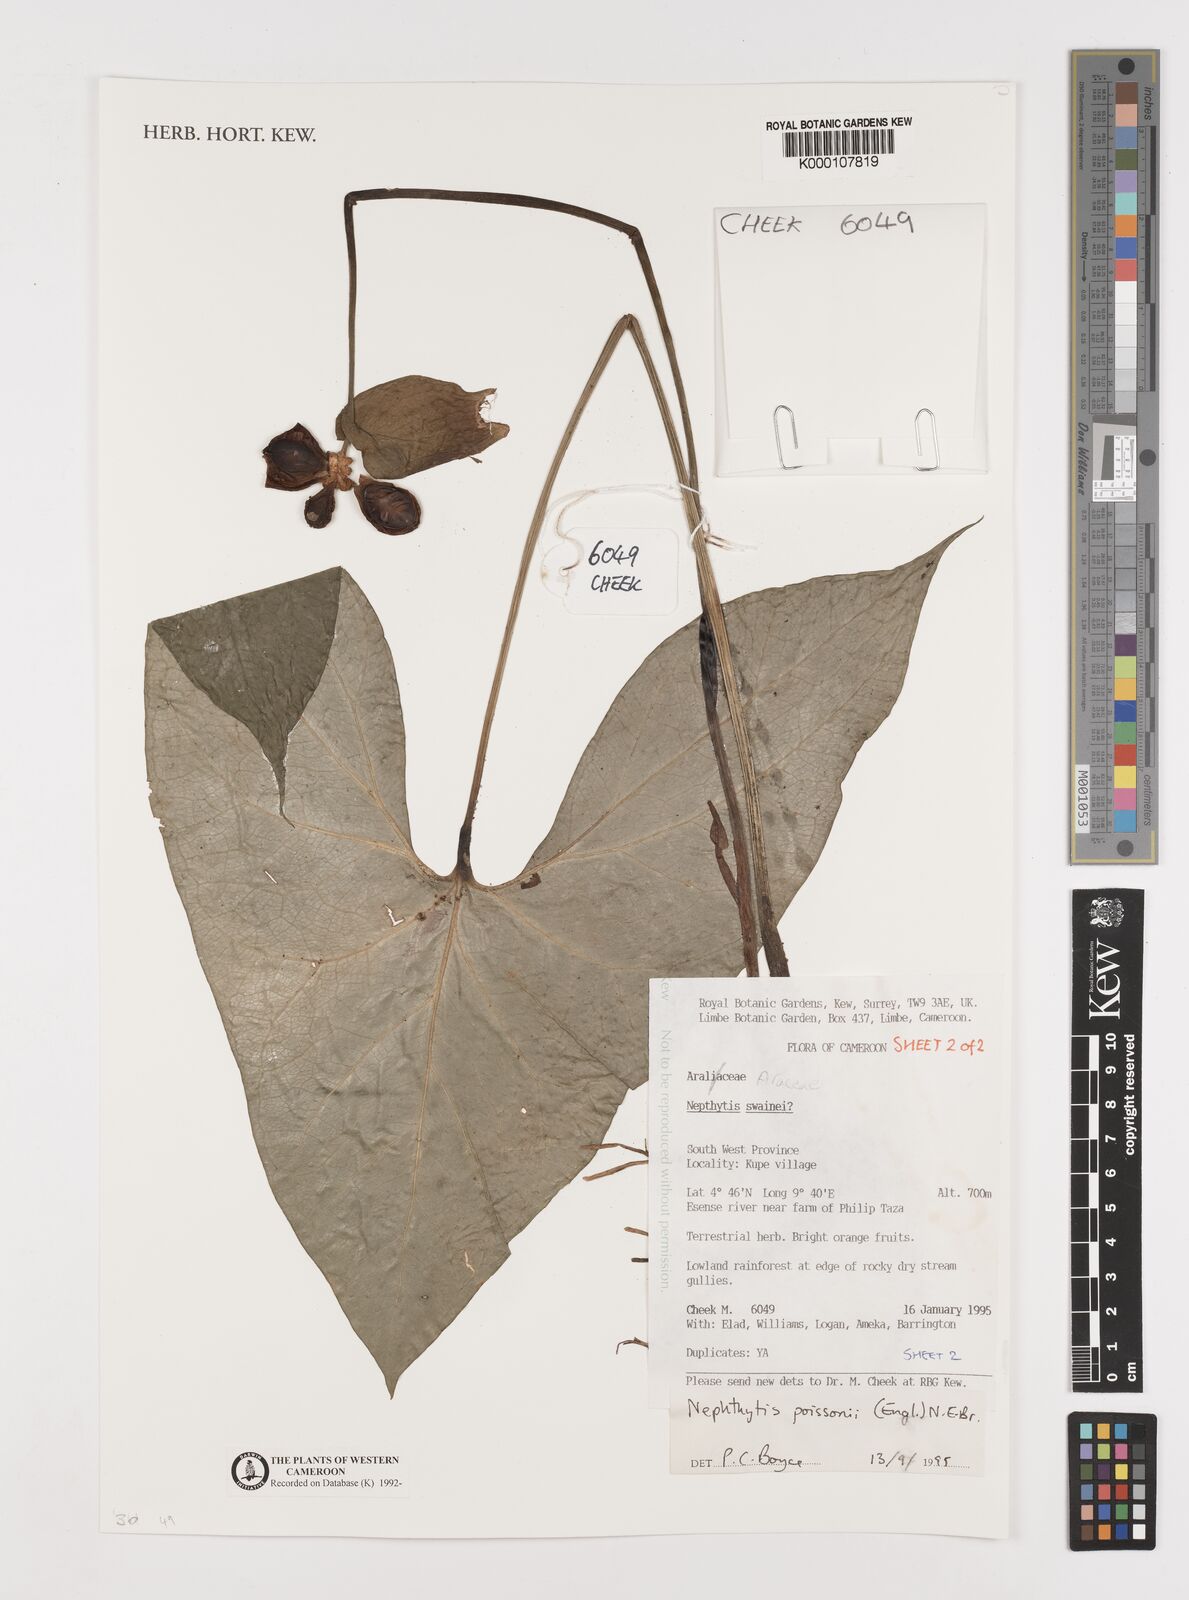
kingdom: Plantae
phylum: Tracheophyta
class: Liliopsida
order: Alismatales
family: Araceae
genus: Nephthytis
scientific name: Nephthytis poissonii
